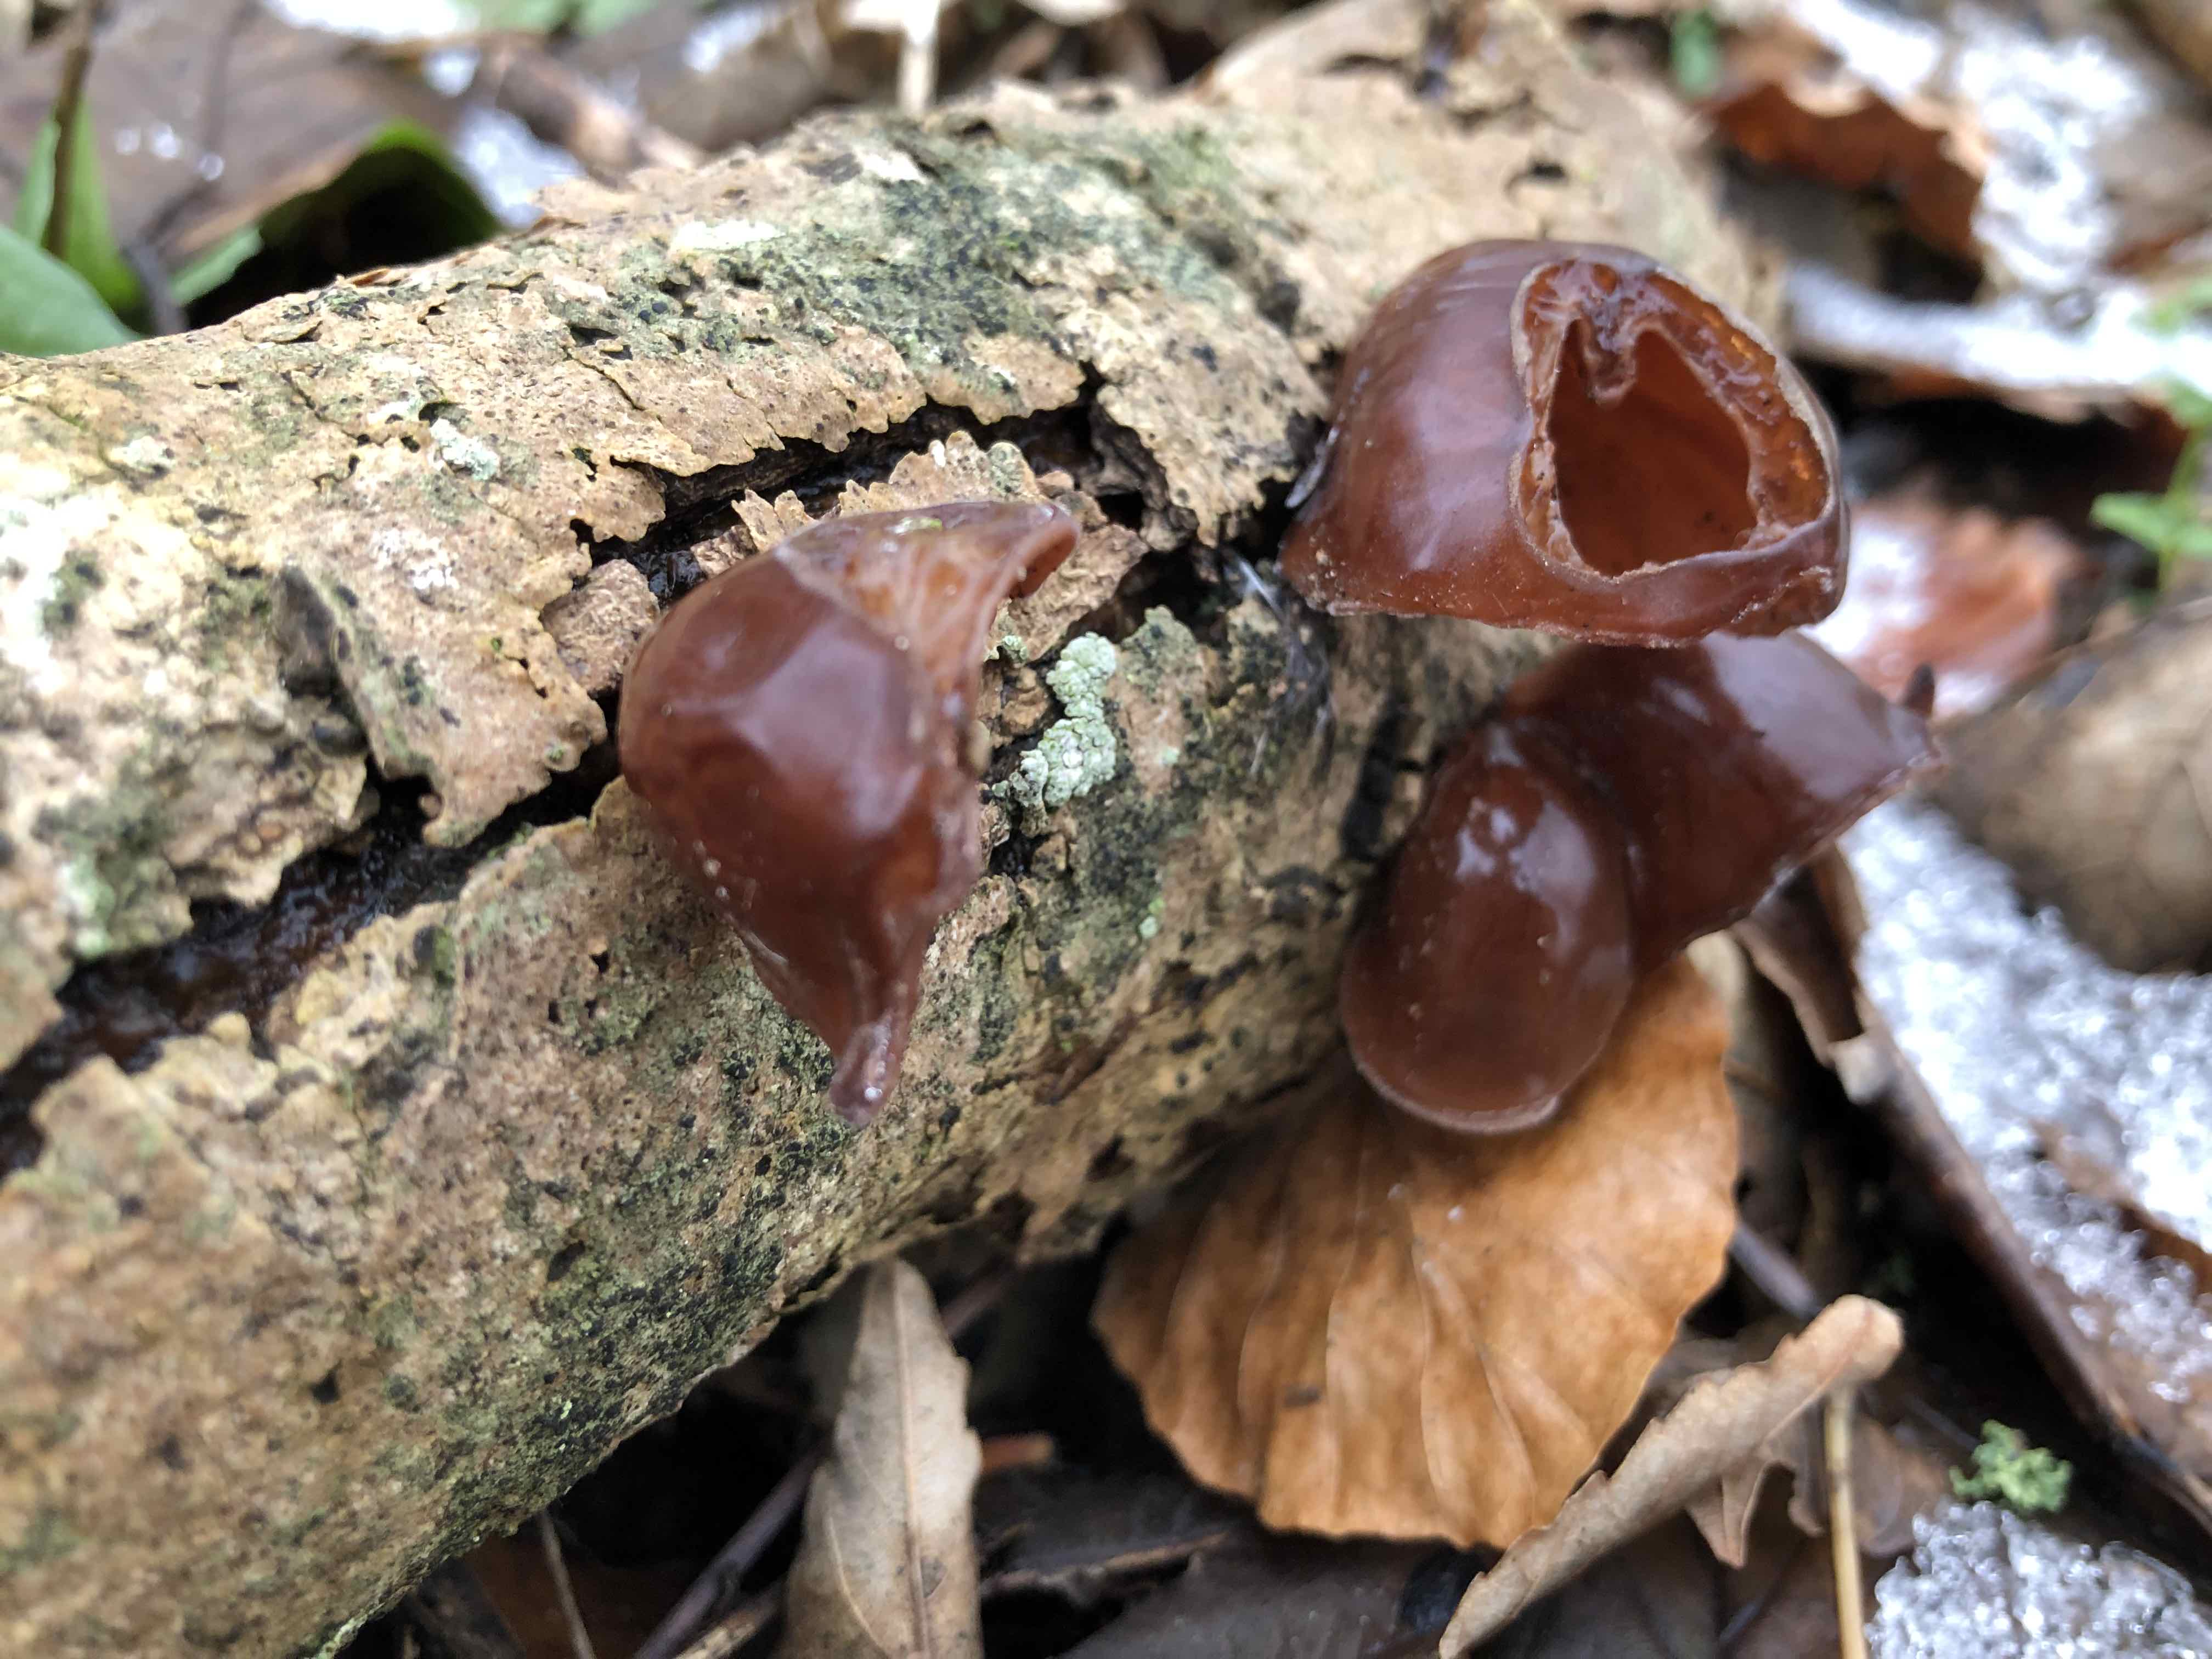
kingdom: Fungi
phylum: Basidiomycota
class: Agaricomycetes
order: Auriculariales
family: Auriculariaceae
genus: Auricularia
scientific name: Auricularia auricula-judae
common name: almindelig judasøre
